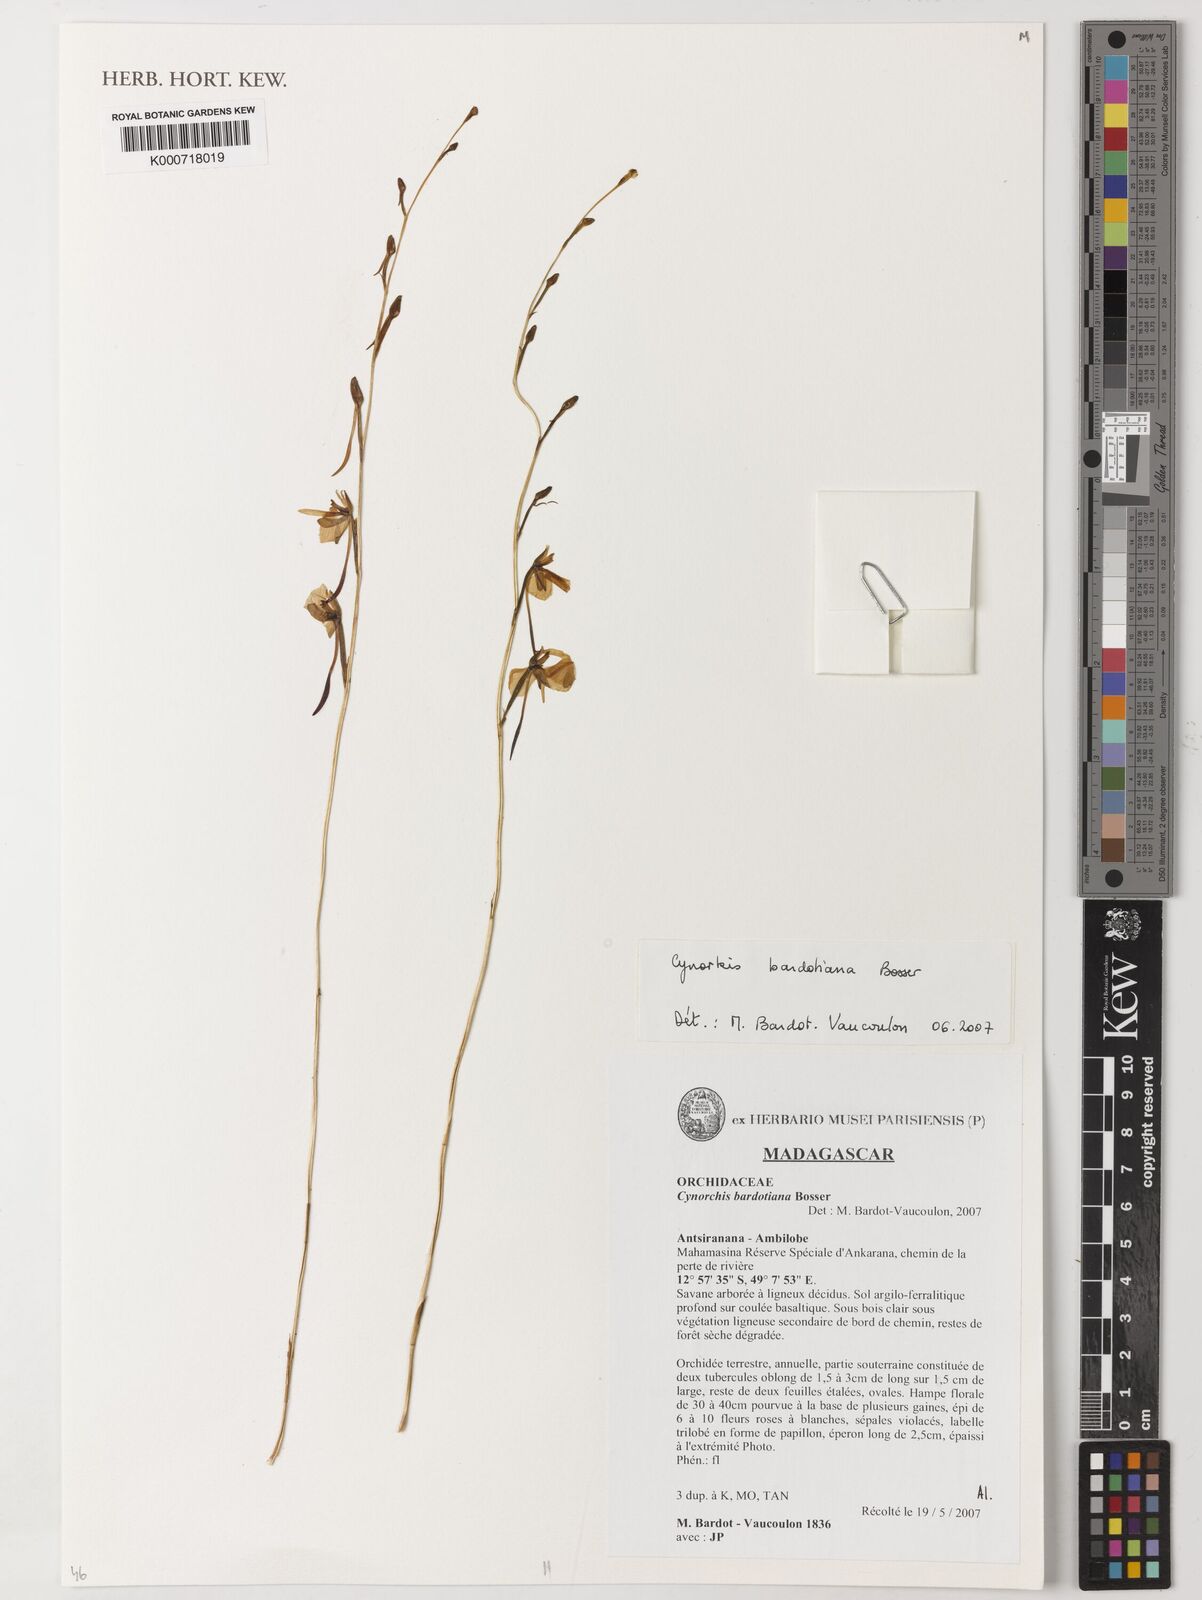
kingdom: Plantae
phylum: Tracheophyta
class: Liliopsida
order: Asparagales
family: Orchidaceae
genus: Cynorkis
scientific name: Cynorkis bardotiana
